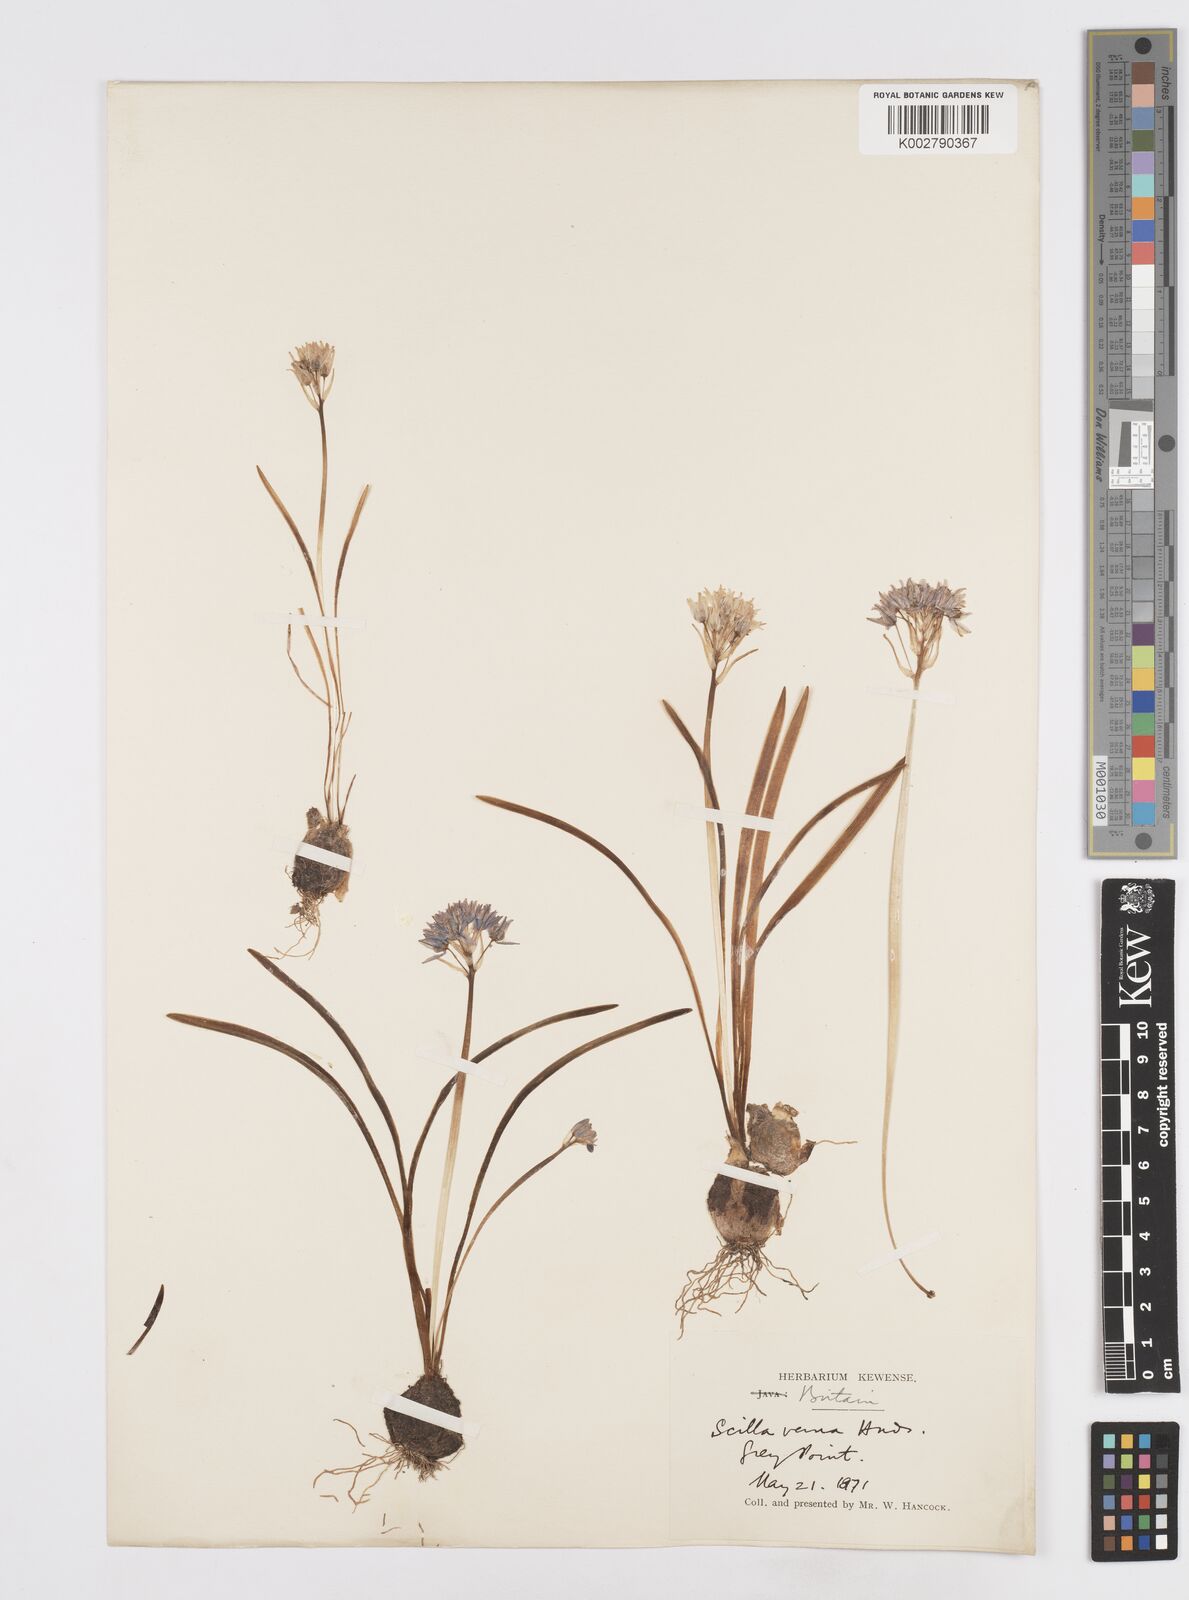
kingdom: Plantae
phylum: Tracheophyta
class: Liliopsida
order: Asparagales
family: Asparagaceae
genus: Scilla
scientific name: Scilla verna
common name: Spring squill
